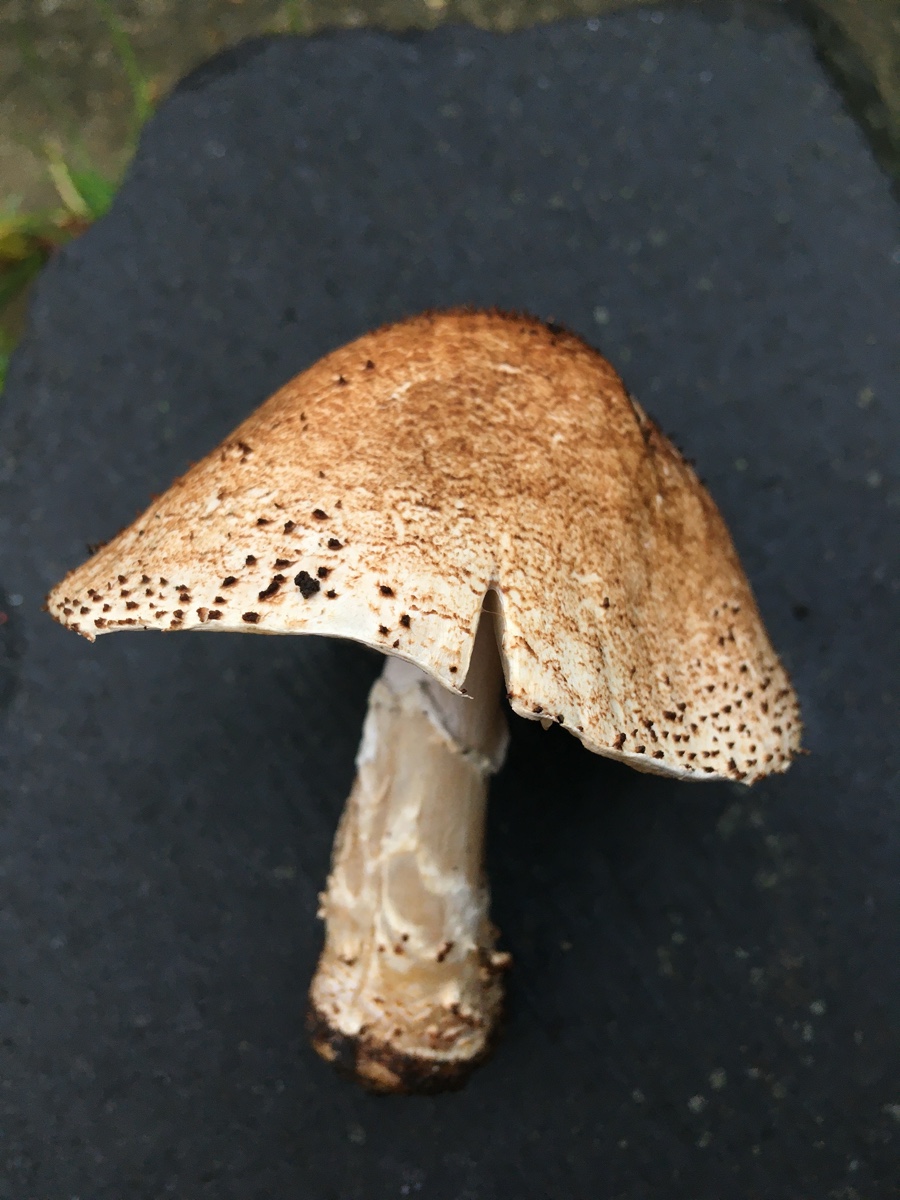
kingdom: Fungi
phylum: Basidiomycota
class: Agaricomycetes
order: Agaricales
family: Agaricaceae
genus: Echinoderma
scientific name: Echinoderma asperum
